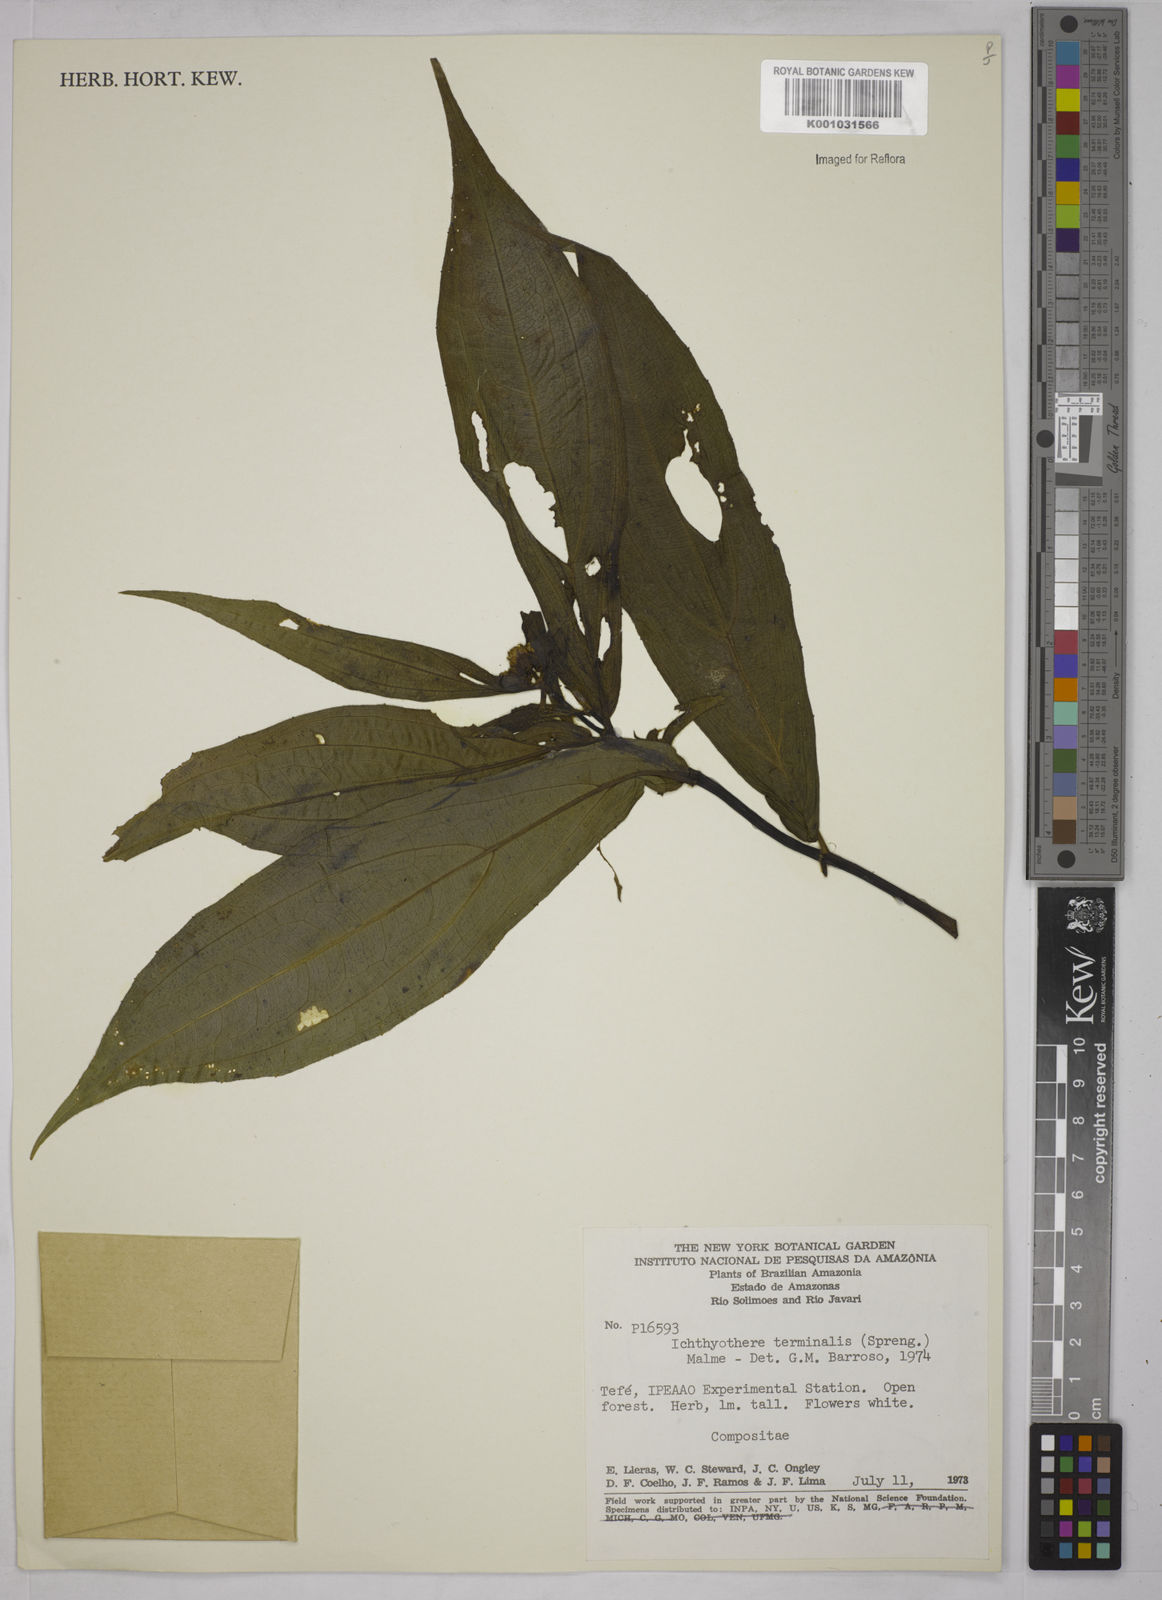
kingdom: Plantae
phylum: Tracheophyta
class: Magnoliopsida
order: Asterales
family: Asteraceae
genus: Ichthyothere
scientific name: Ichthyothere cunabi
